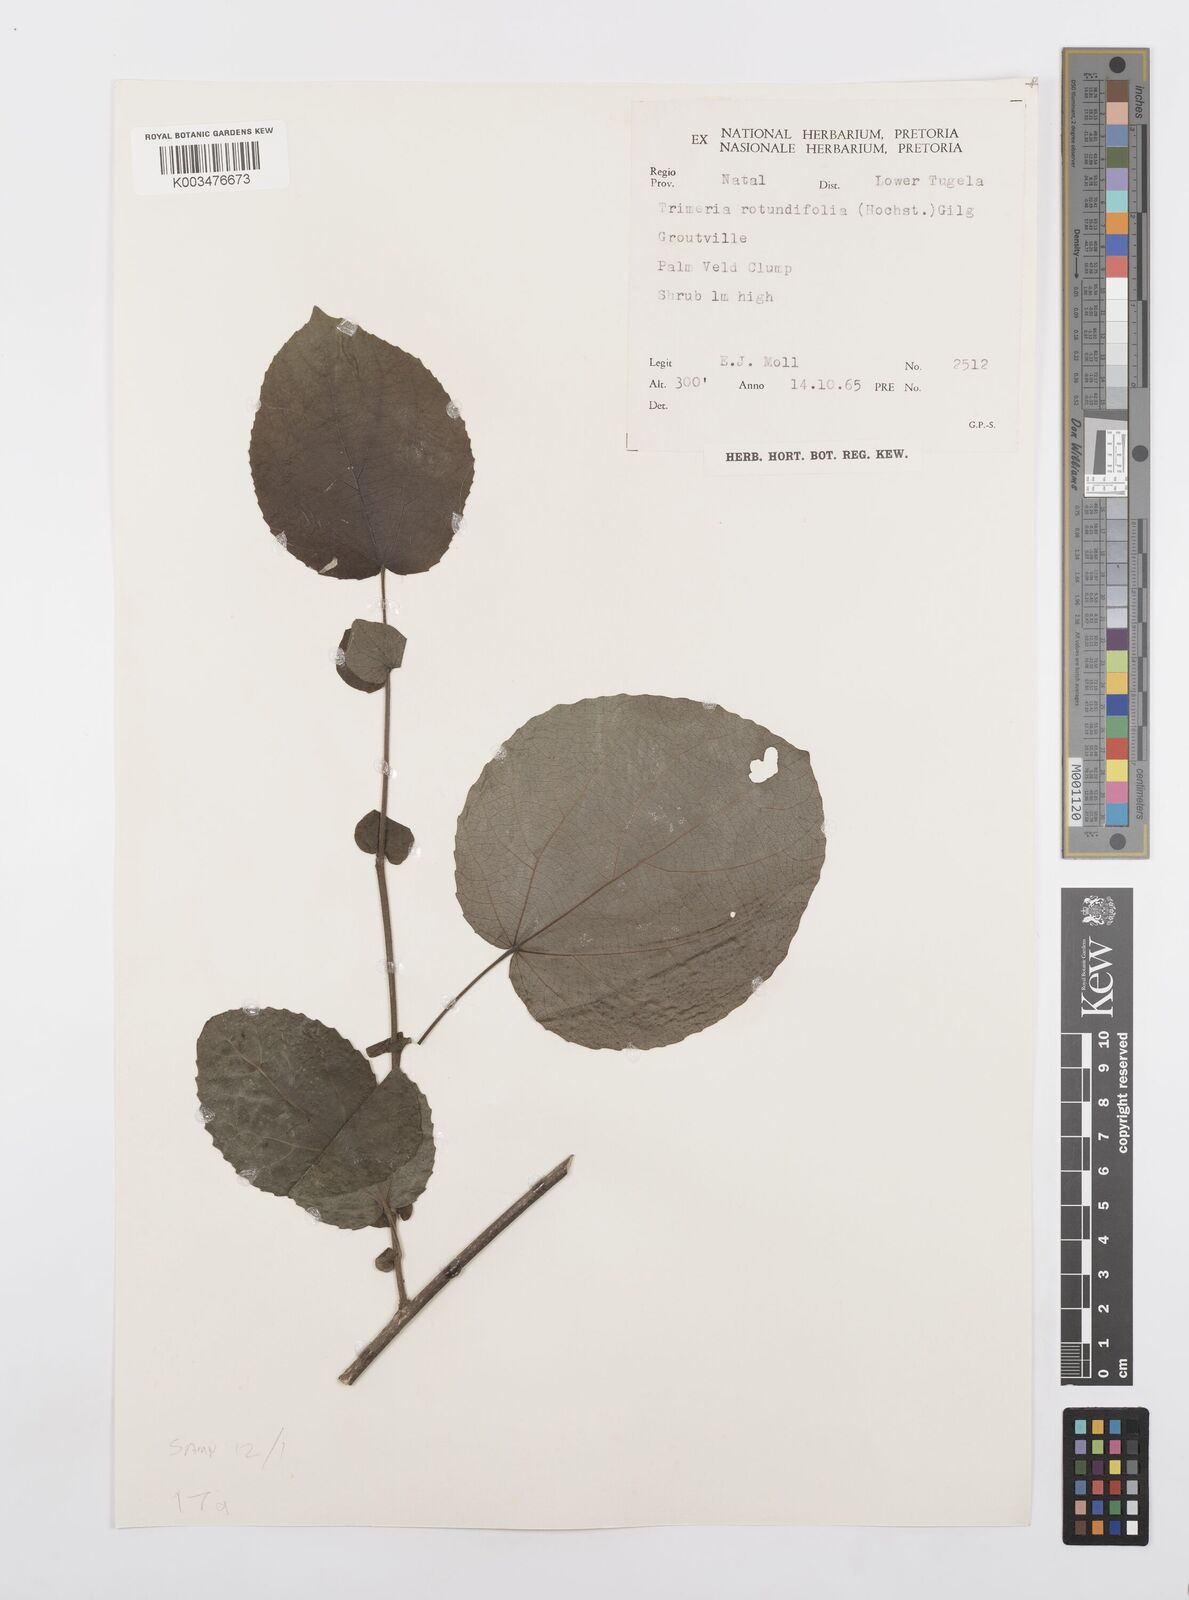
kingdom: Plantae
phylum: Tracheophyta
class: Magnoliopsida
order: Malpighiales
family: Salicaceae
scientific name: Salicaceae
